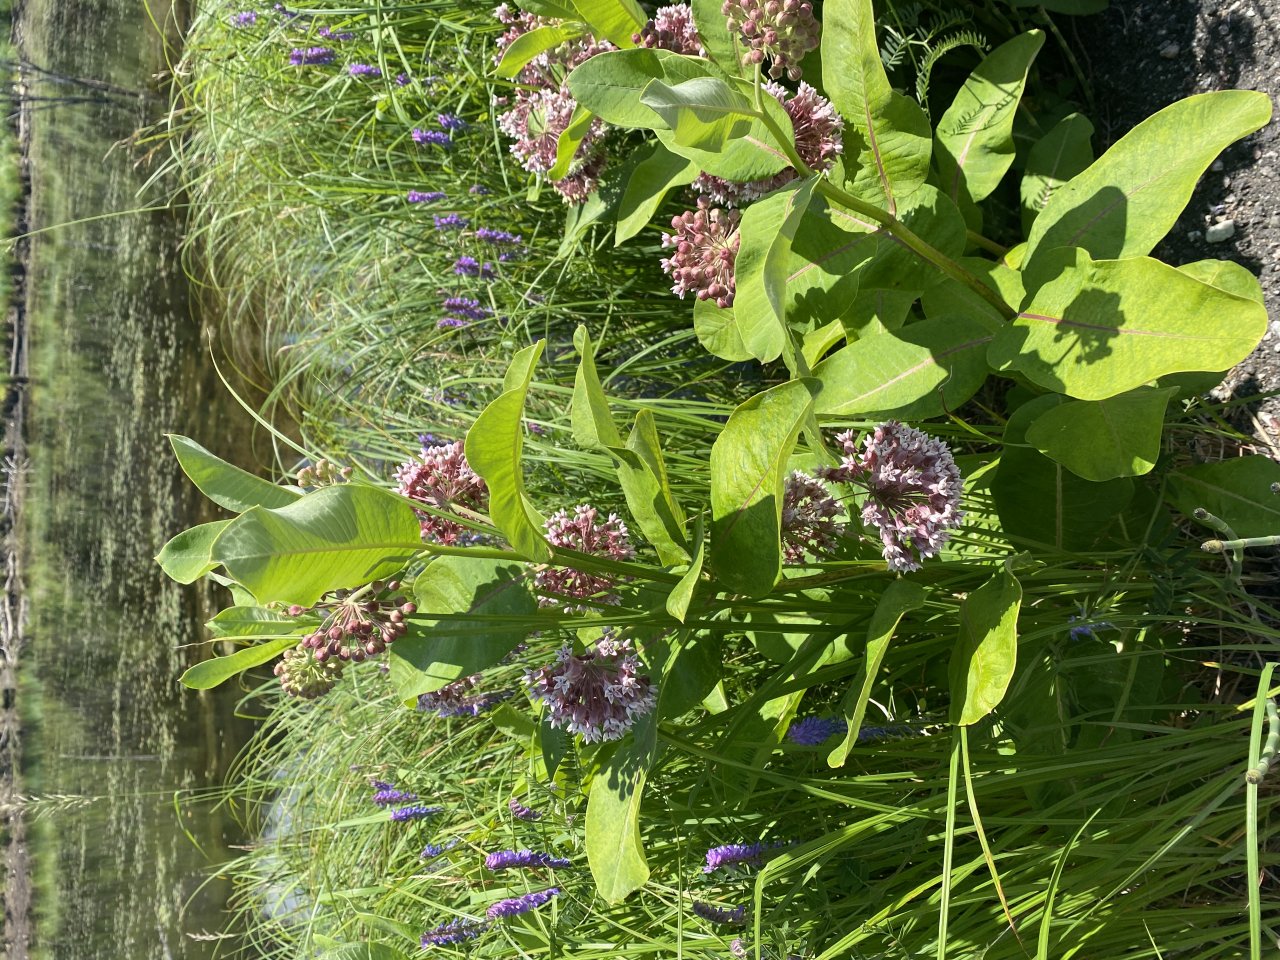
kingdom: Animalia
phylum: Arthropoda
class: Insecta
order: Lepidoptera
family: Nymphalidae
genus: Danaus
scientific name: Danaus plexippus
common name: Monarch
